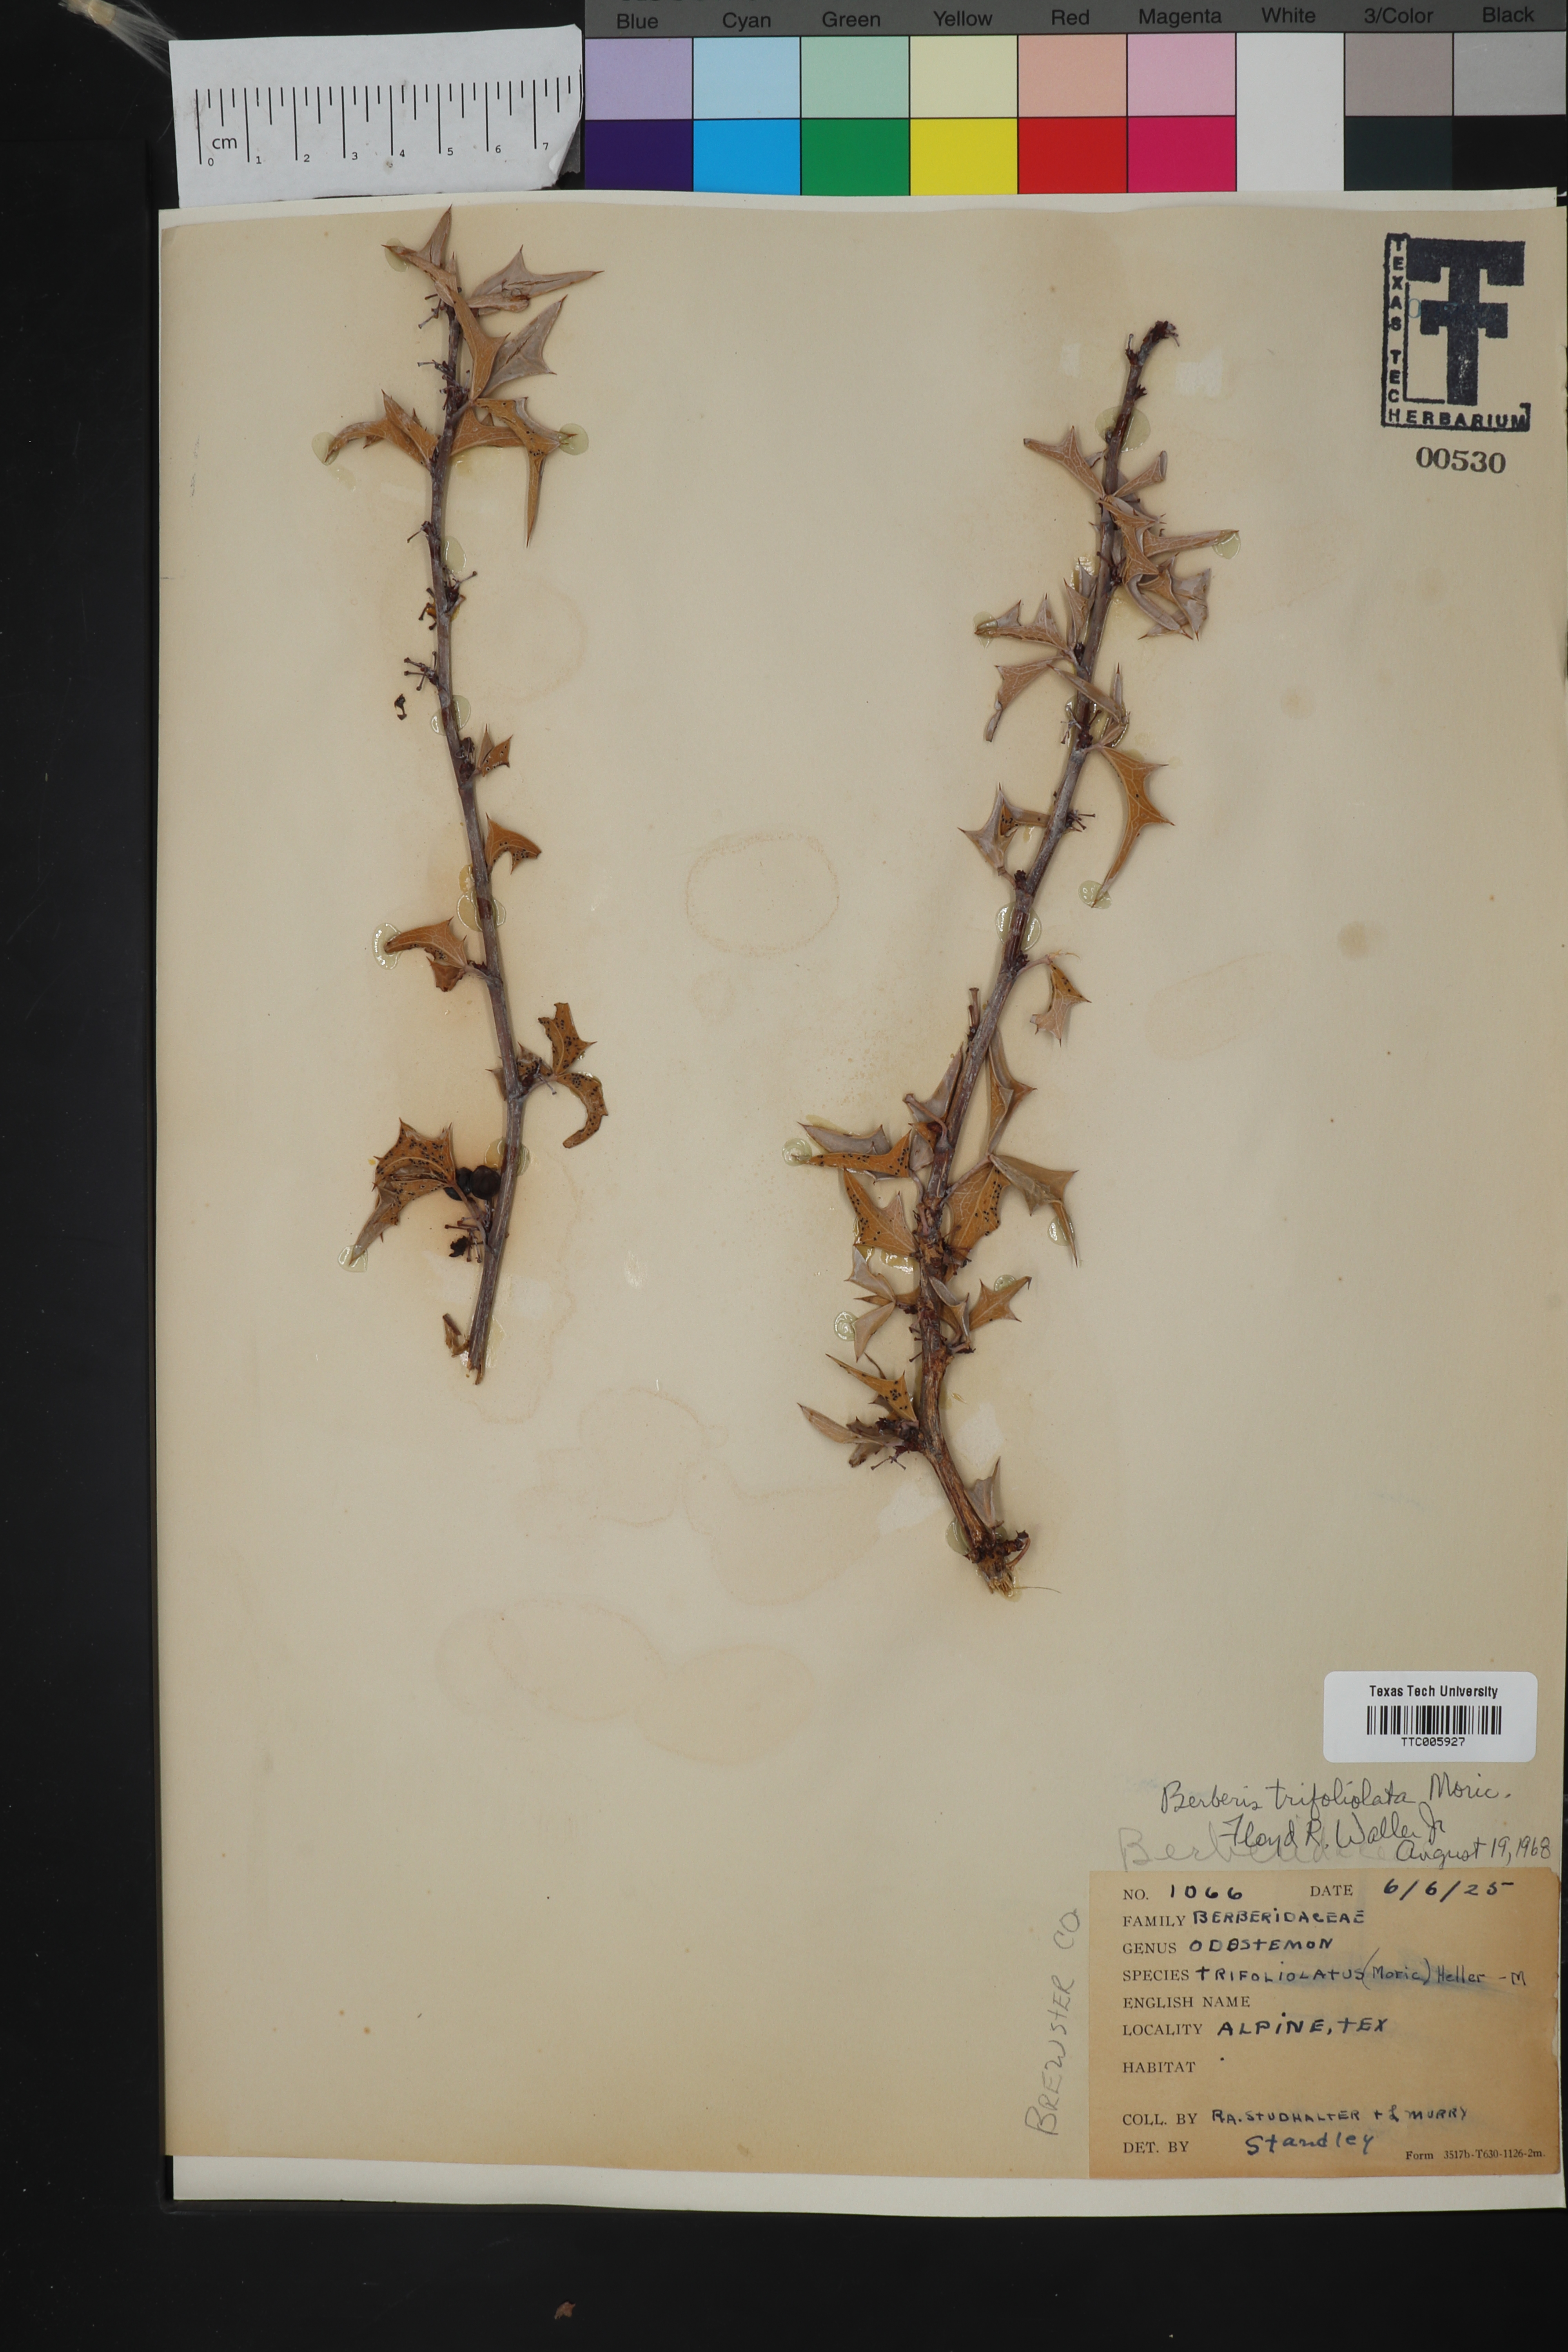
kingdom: Plantae
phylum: Tracheophyta
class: Magnoliopsida
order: Ranunculales
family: Berberidaceae
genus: Alloberberis
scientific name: Alloberberis trifoliolata
